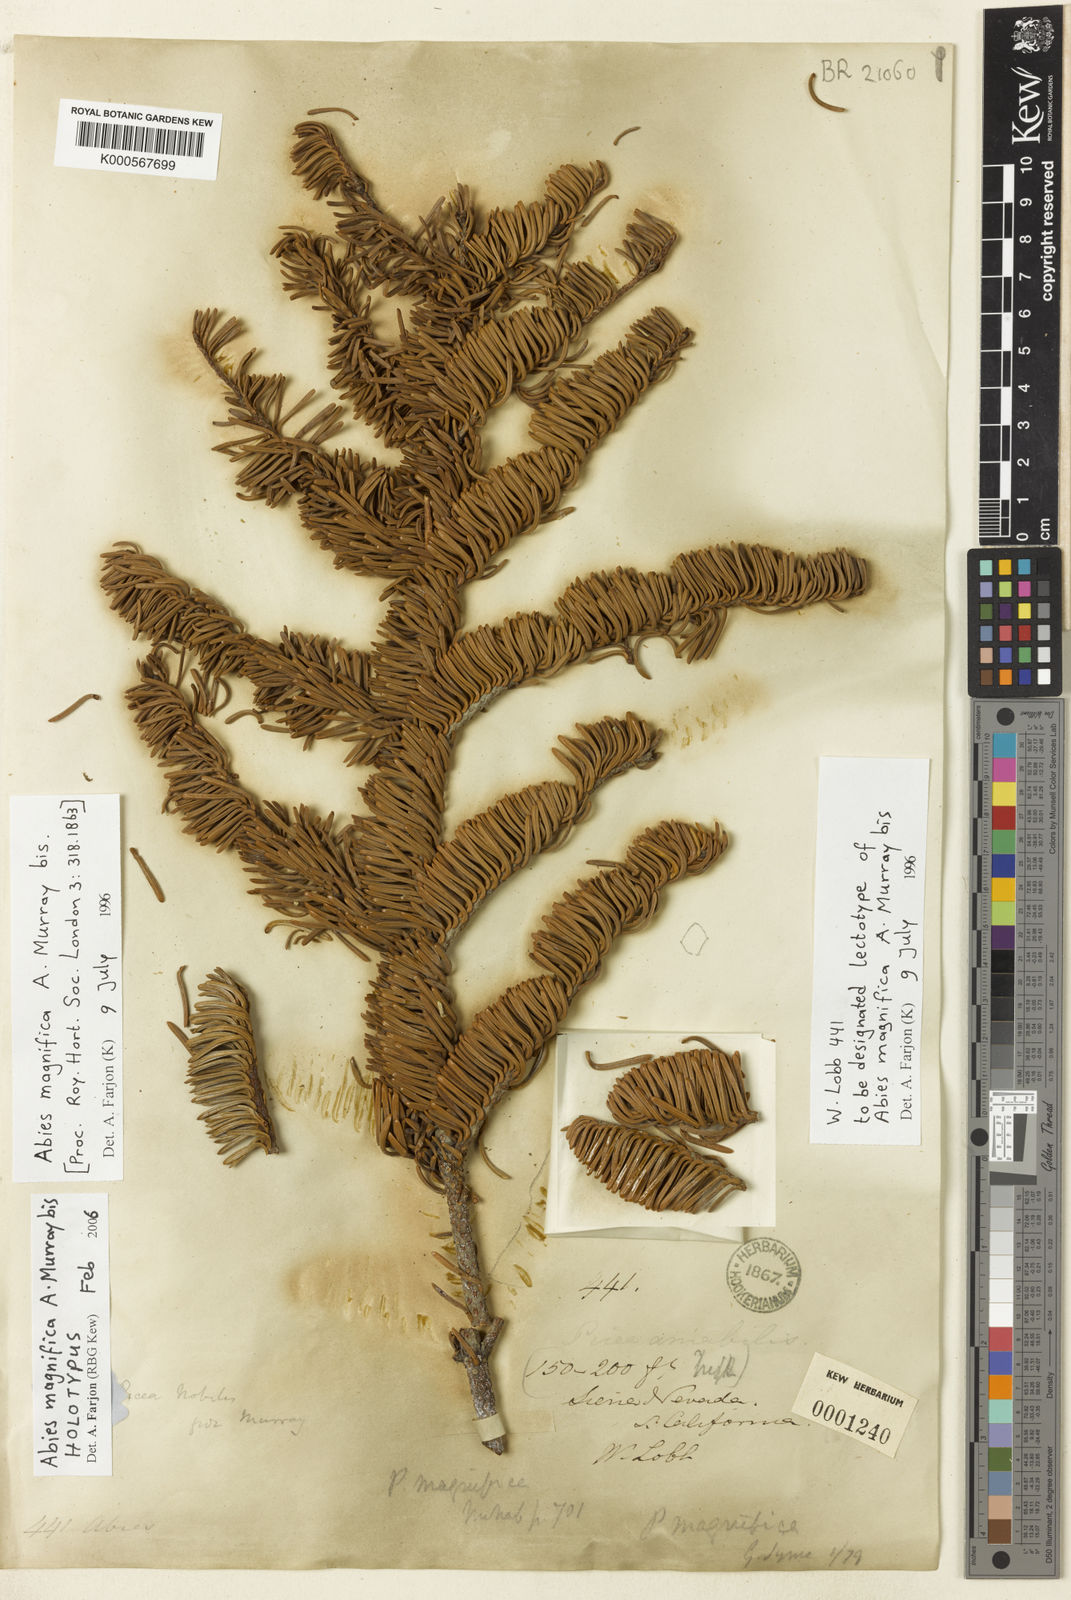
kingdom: Plantae
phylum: Tracheophyta
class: Pinopsida
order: Pinales
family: Pinaceae
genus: Abies
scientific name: Abies magnifica bis
